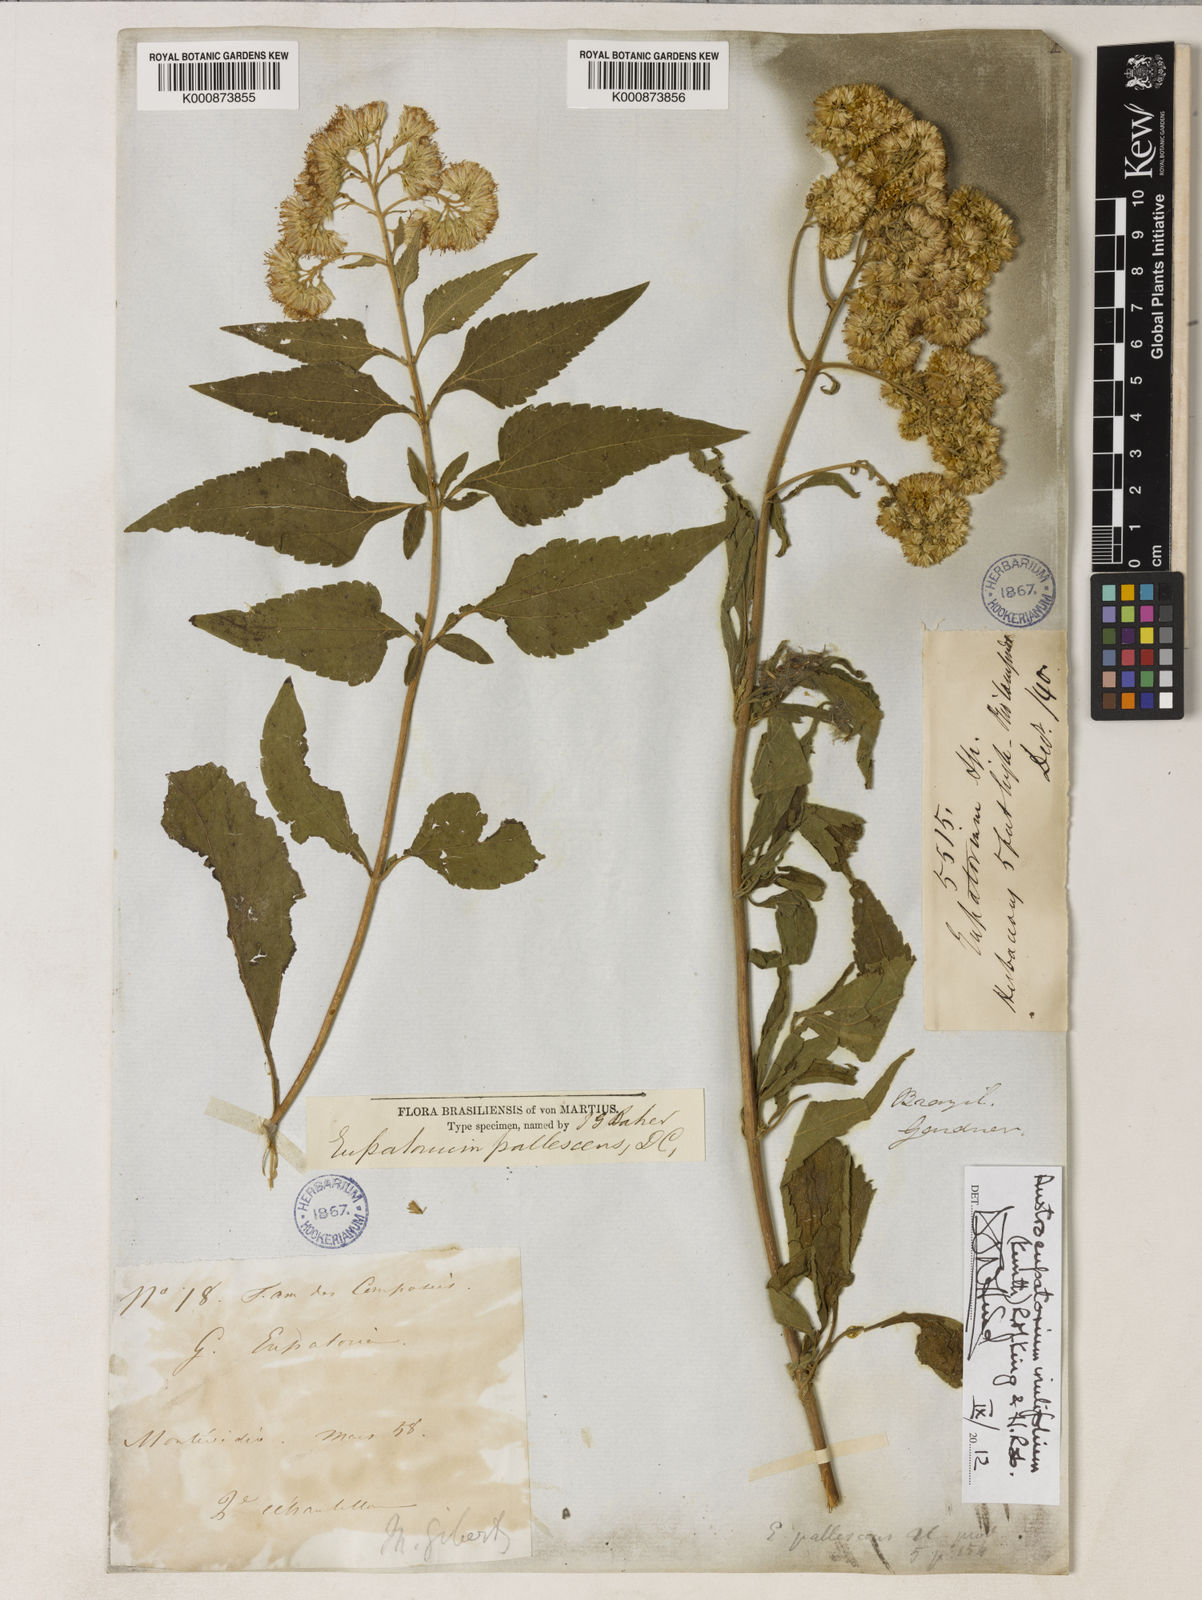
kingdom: Plantae
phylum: Tracheophyta
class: Magnoliopsida
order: Asterales
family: Asteraceae
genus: Austroeupatorium
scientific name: Austroeupatorium inulifolium
